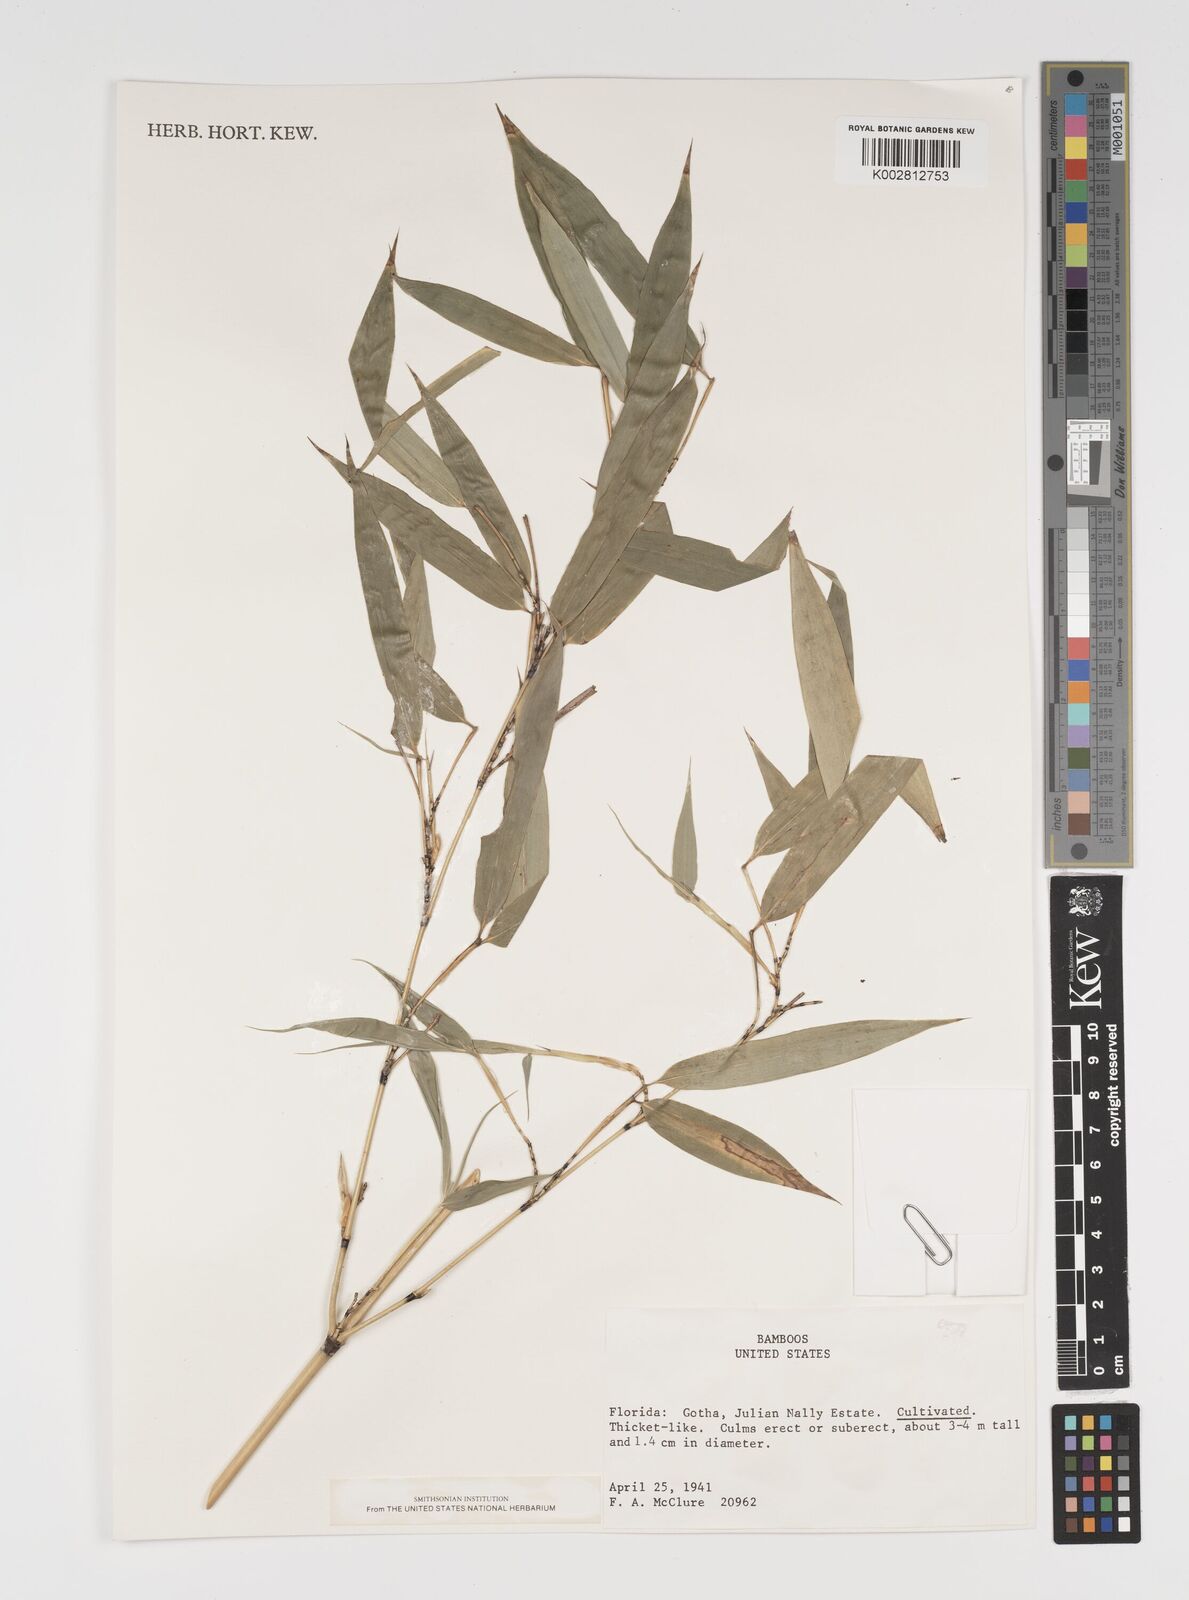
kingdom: Plantae
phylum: Tracheophyta
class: Liliopsida
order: Poales
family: Poaceae
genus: Arundinaria
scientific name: Arundinaria
